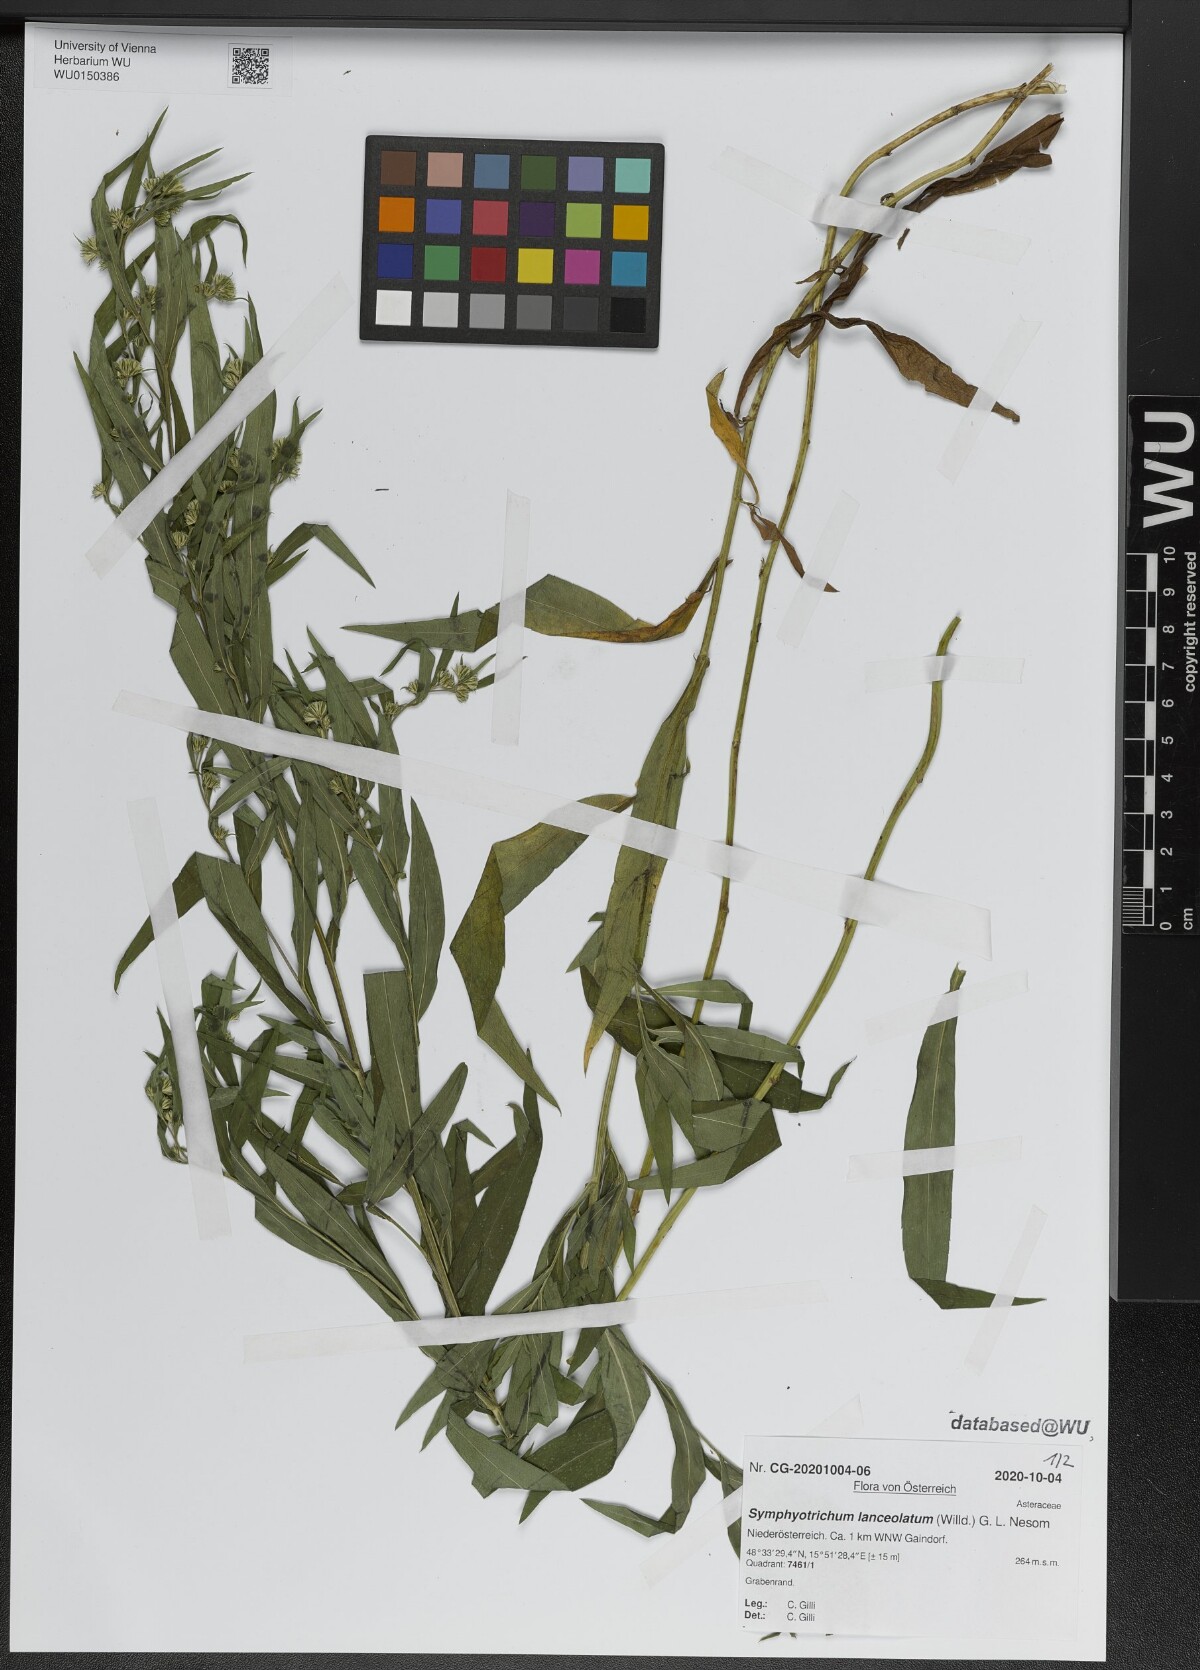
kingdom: Plantae
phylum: Tracheophyta
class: Magnoliopsida
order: Asterales
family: Asteraceae
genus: Symphyotrichum
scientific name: Symphyotrichum lanceolatum
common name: Panicled aster
